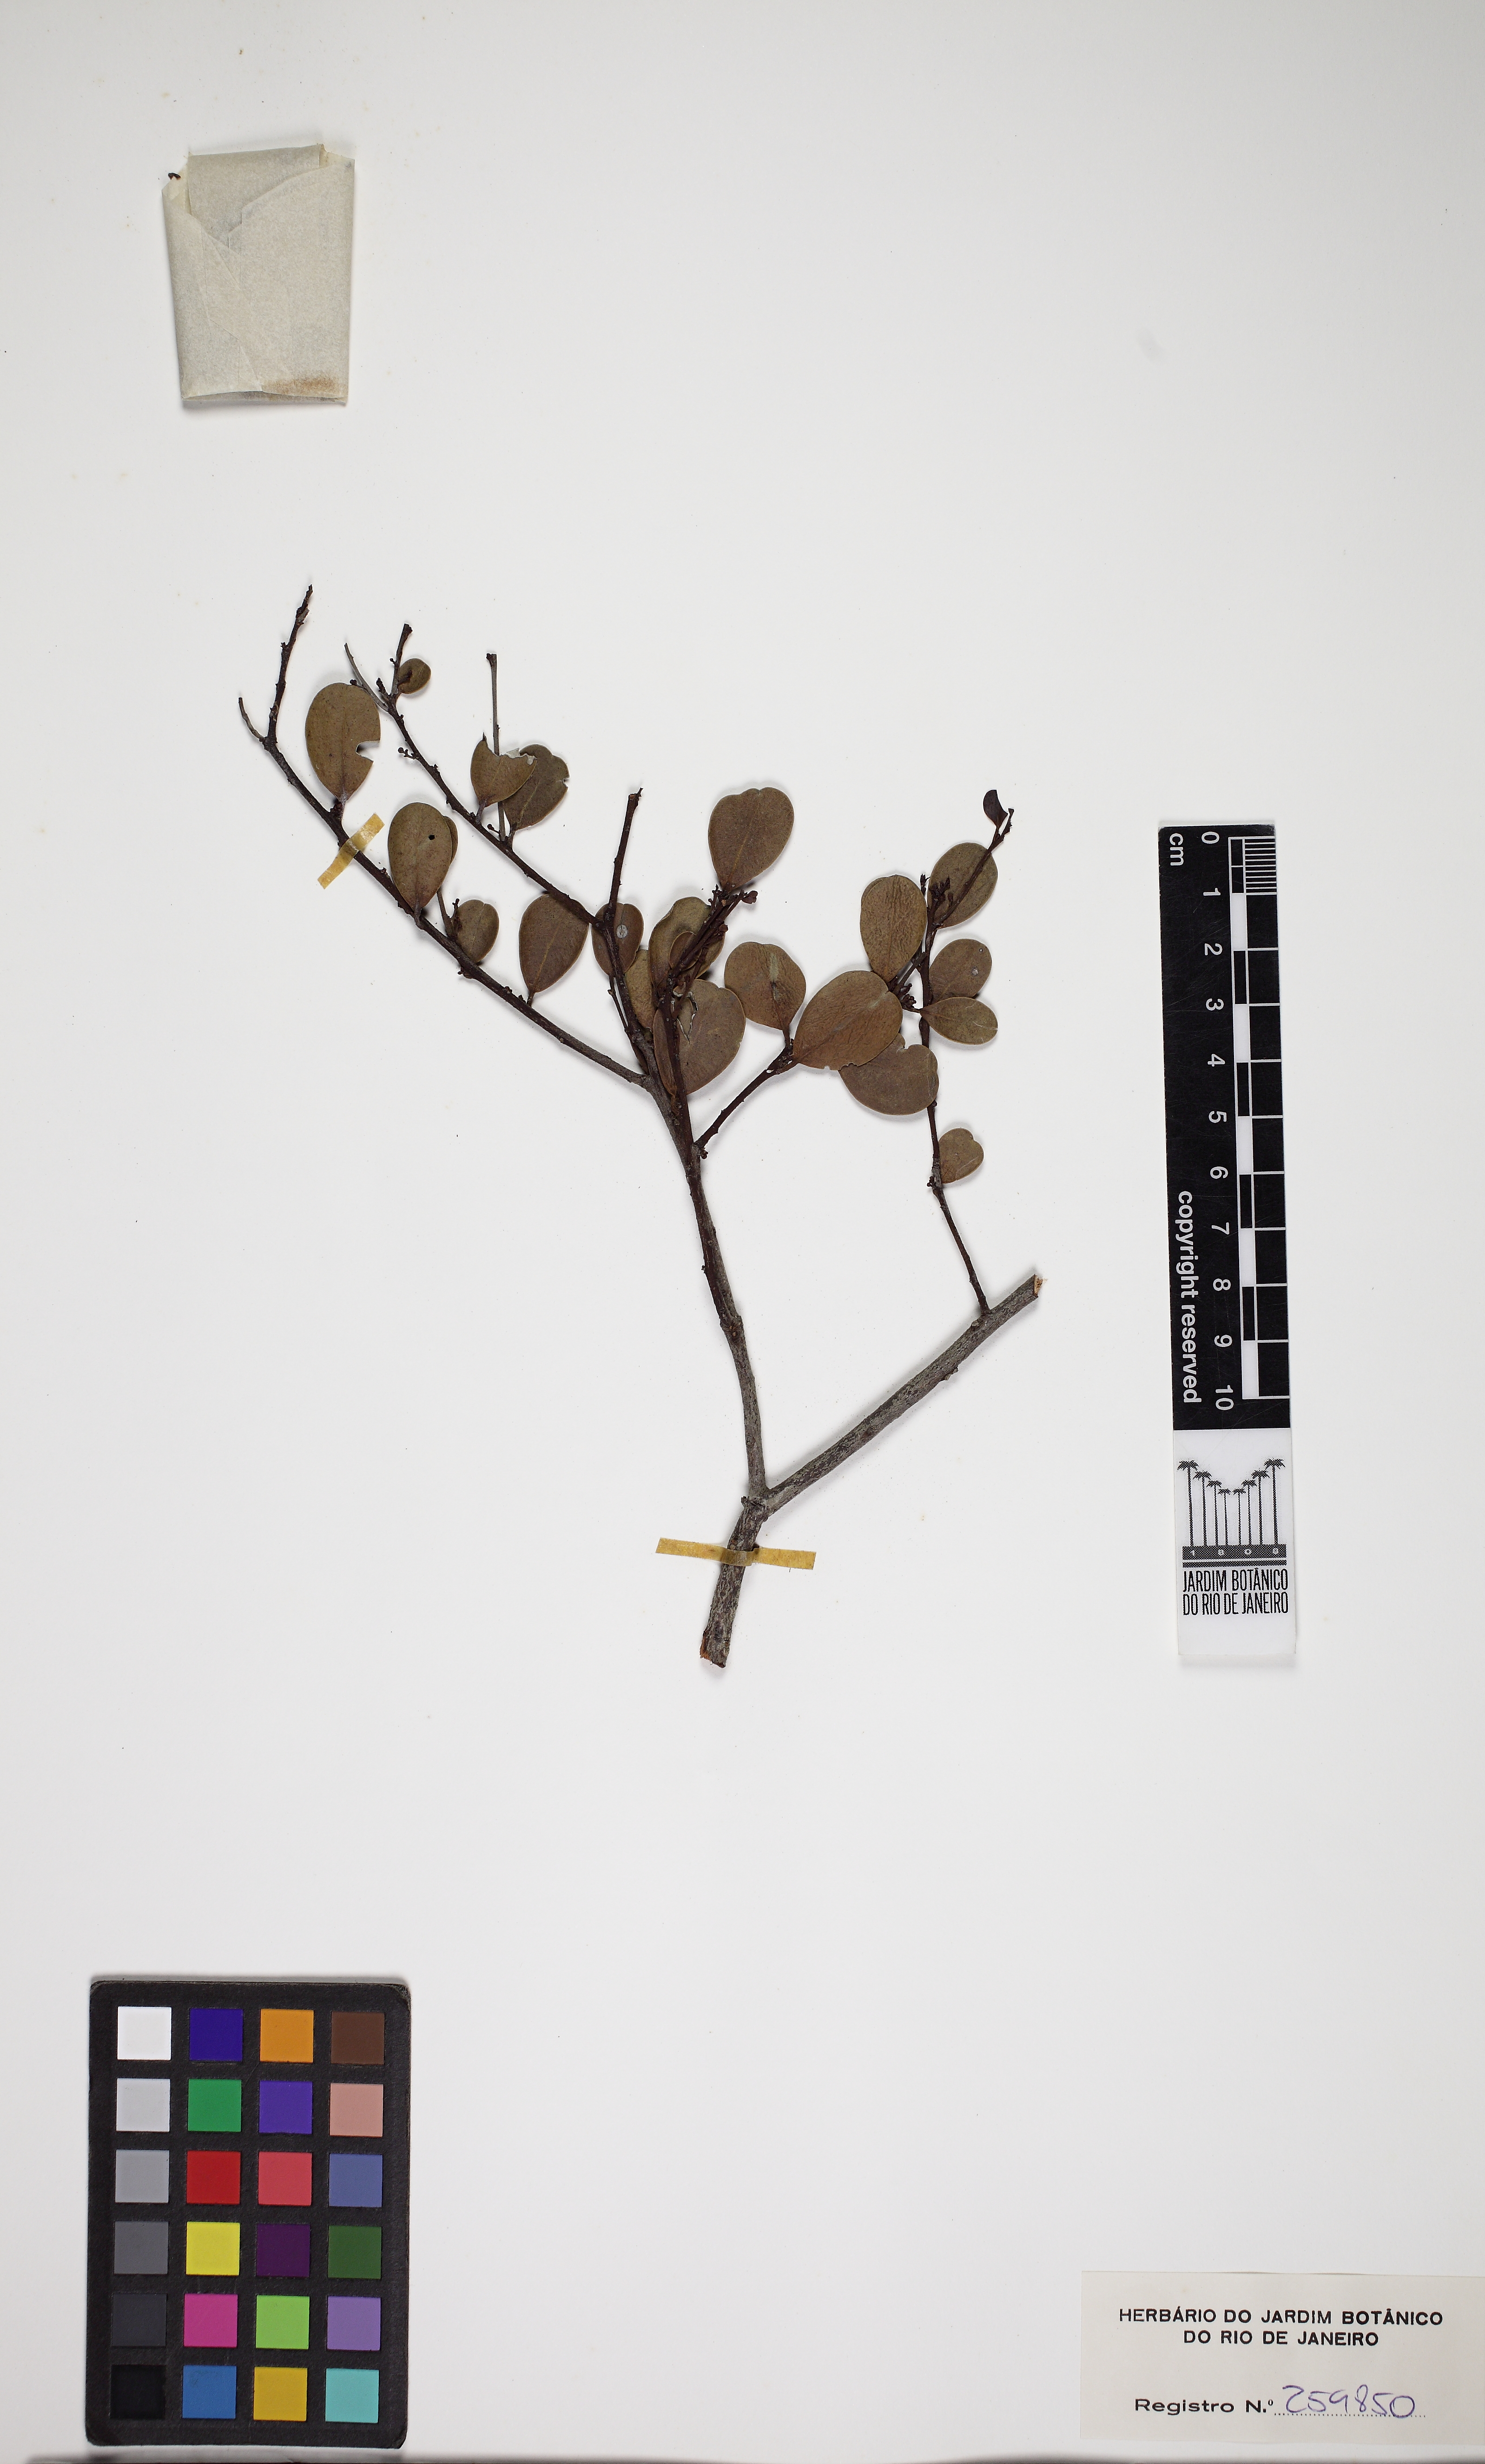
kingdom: Plantae
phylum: Tracheophyta
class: Magnoliopsida
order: Celastrales
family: Celastraceae
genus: Monteverdia
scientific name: Monteverdia mucugensis
